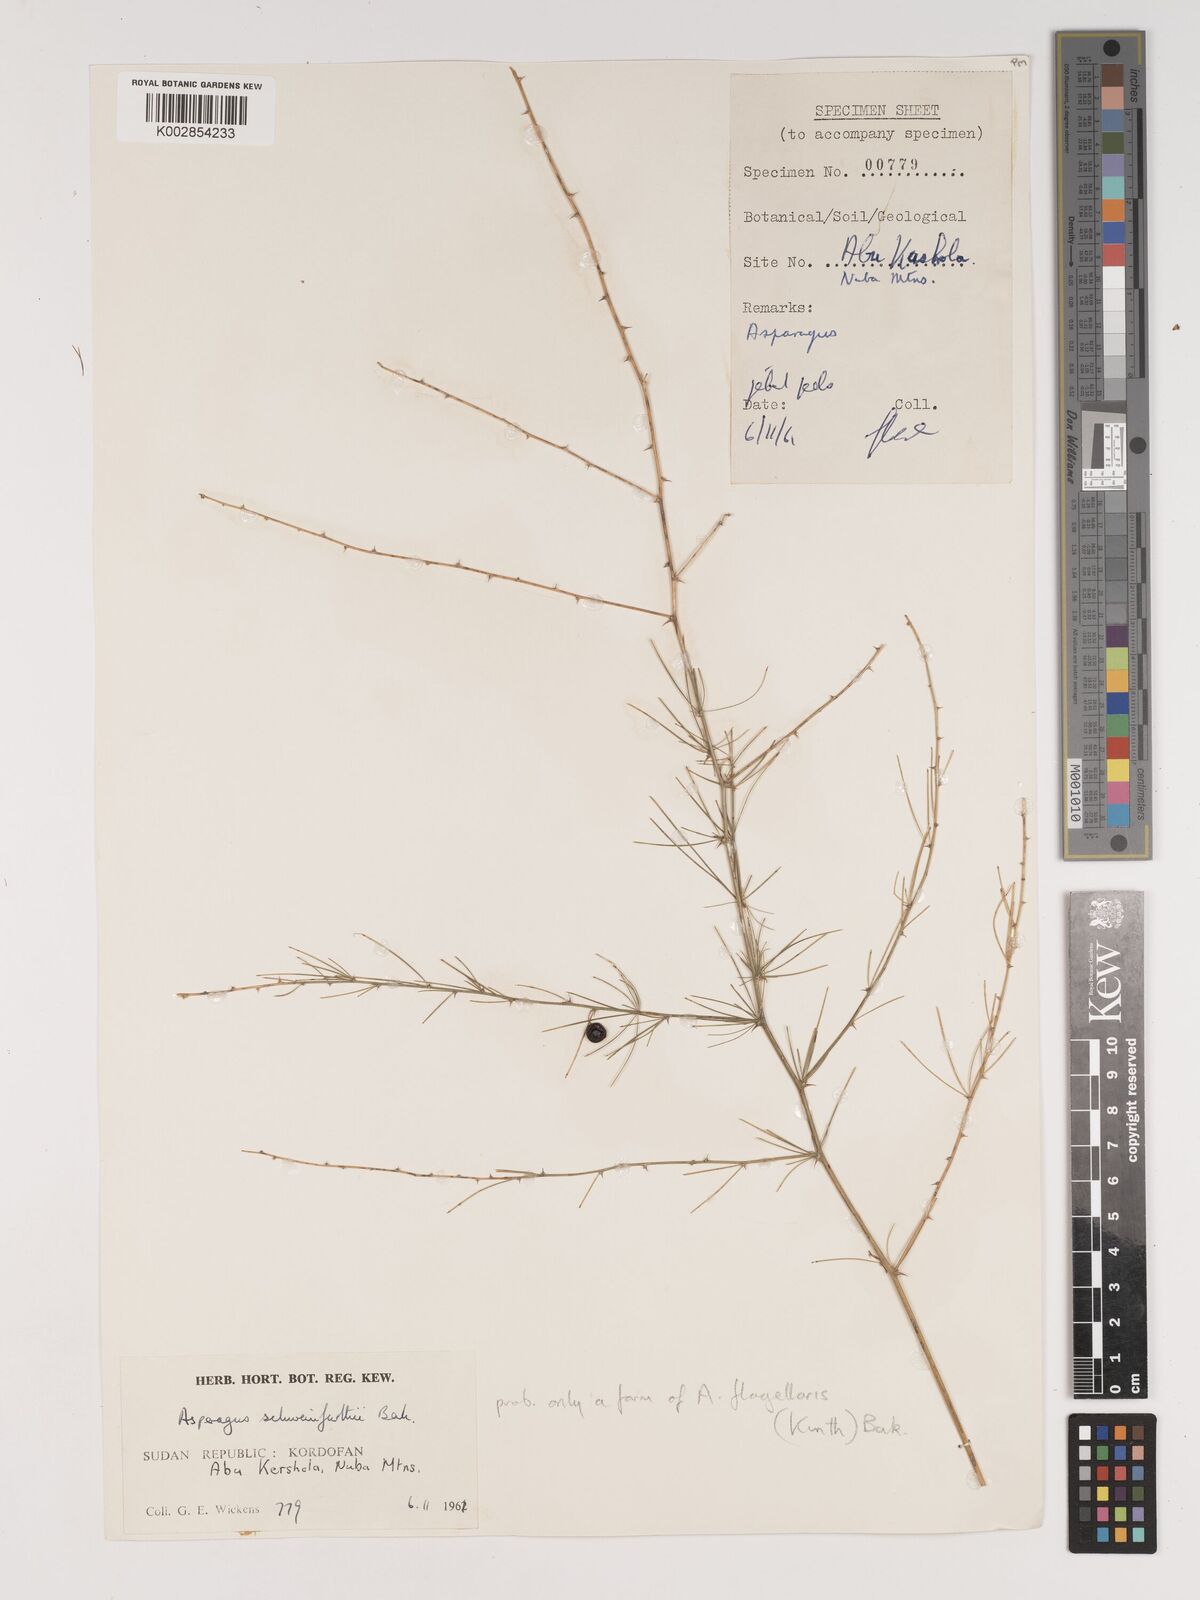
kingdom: Plantae
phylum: Tracheophyta
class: Liliopsida
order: Asparagales
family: Asparagaceae
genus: Asparagus
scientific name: Asparagus flagellaris
